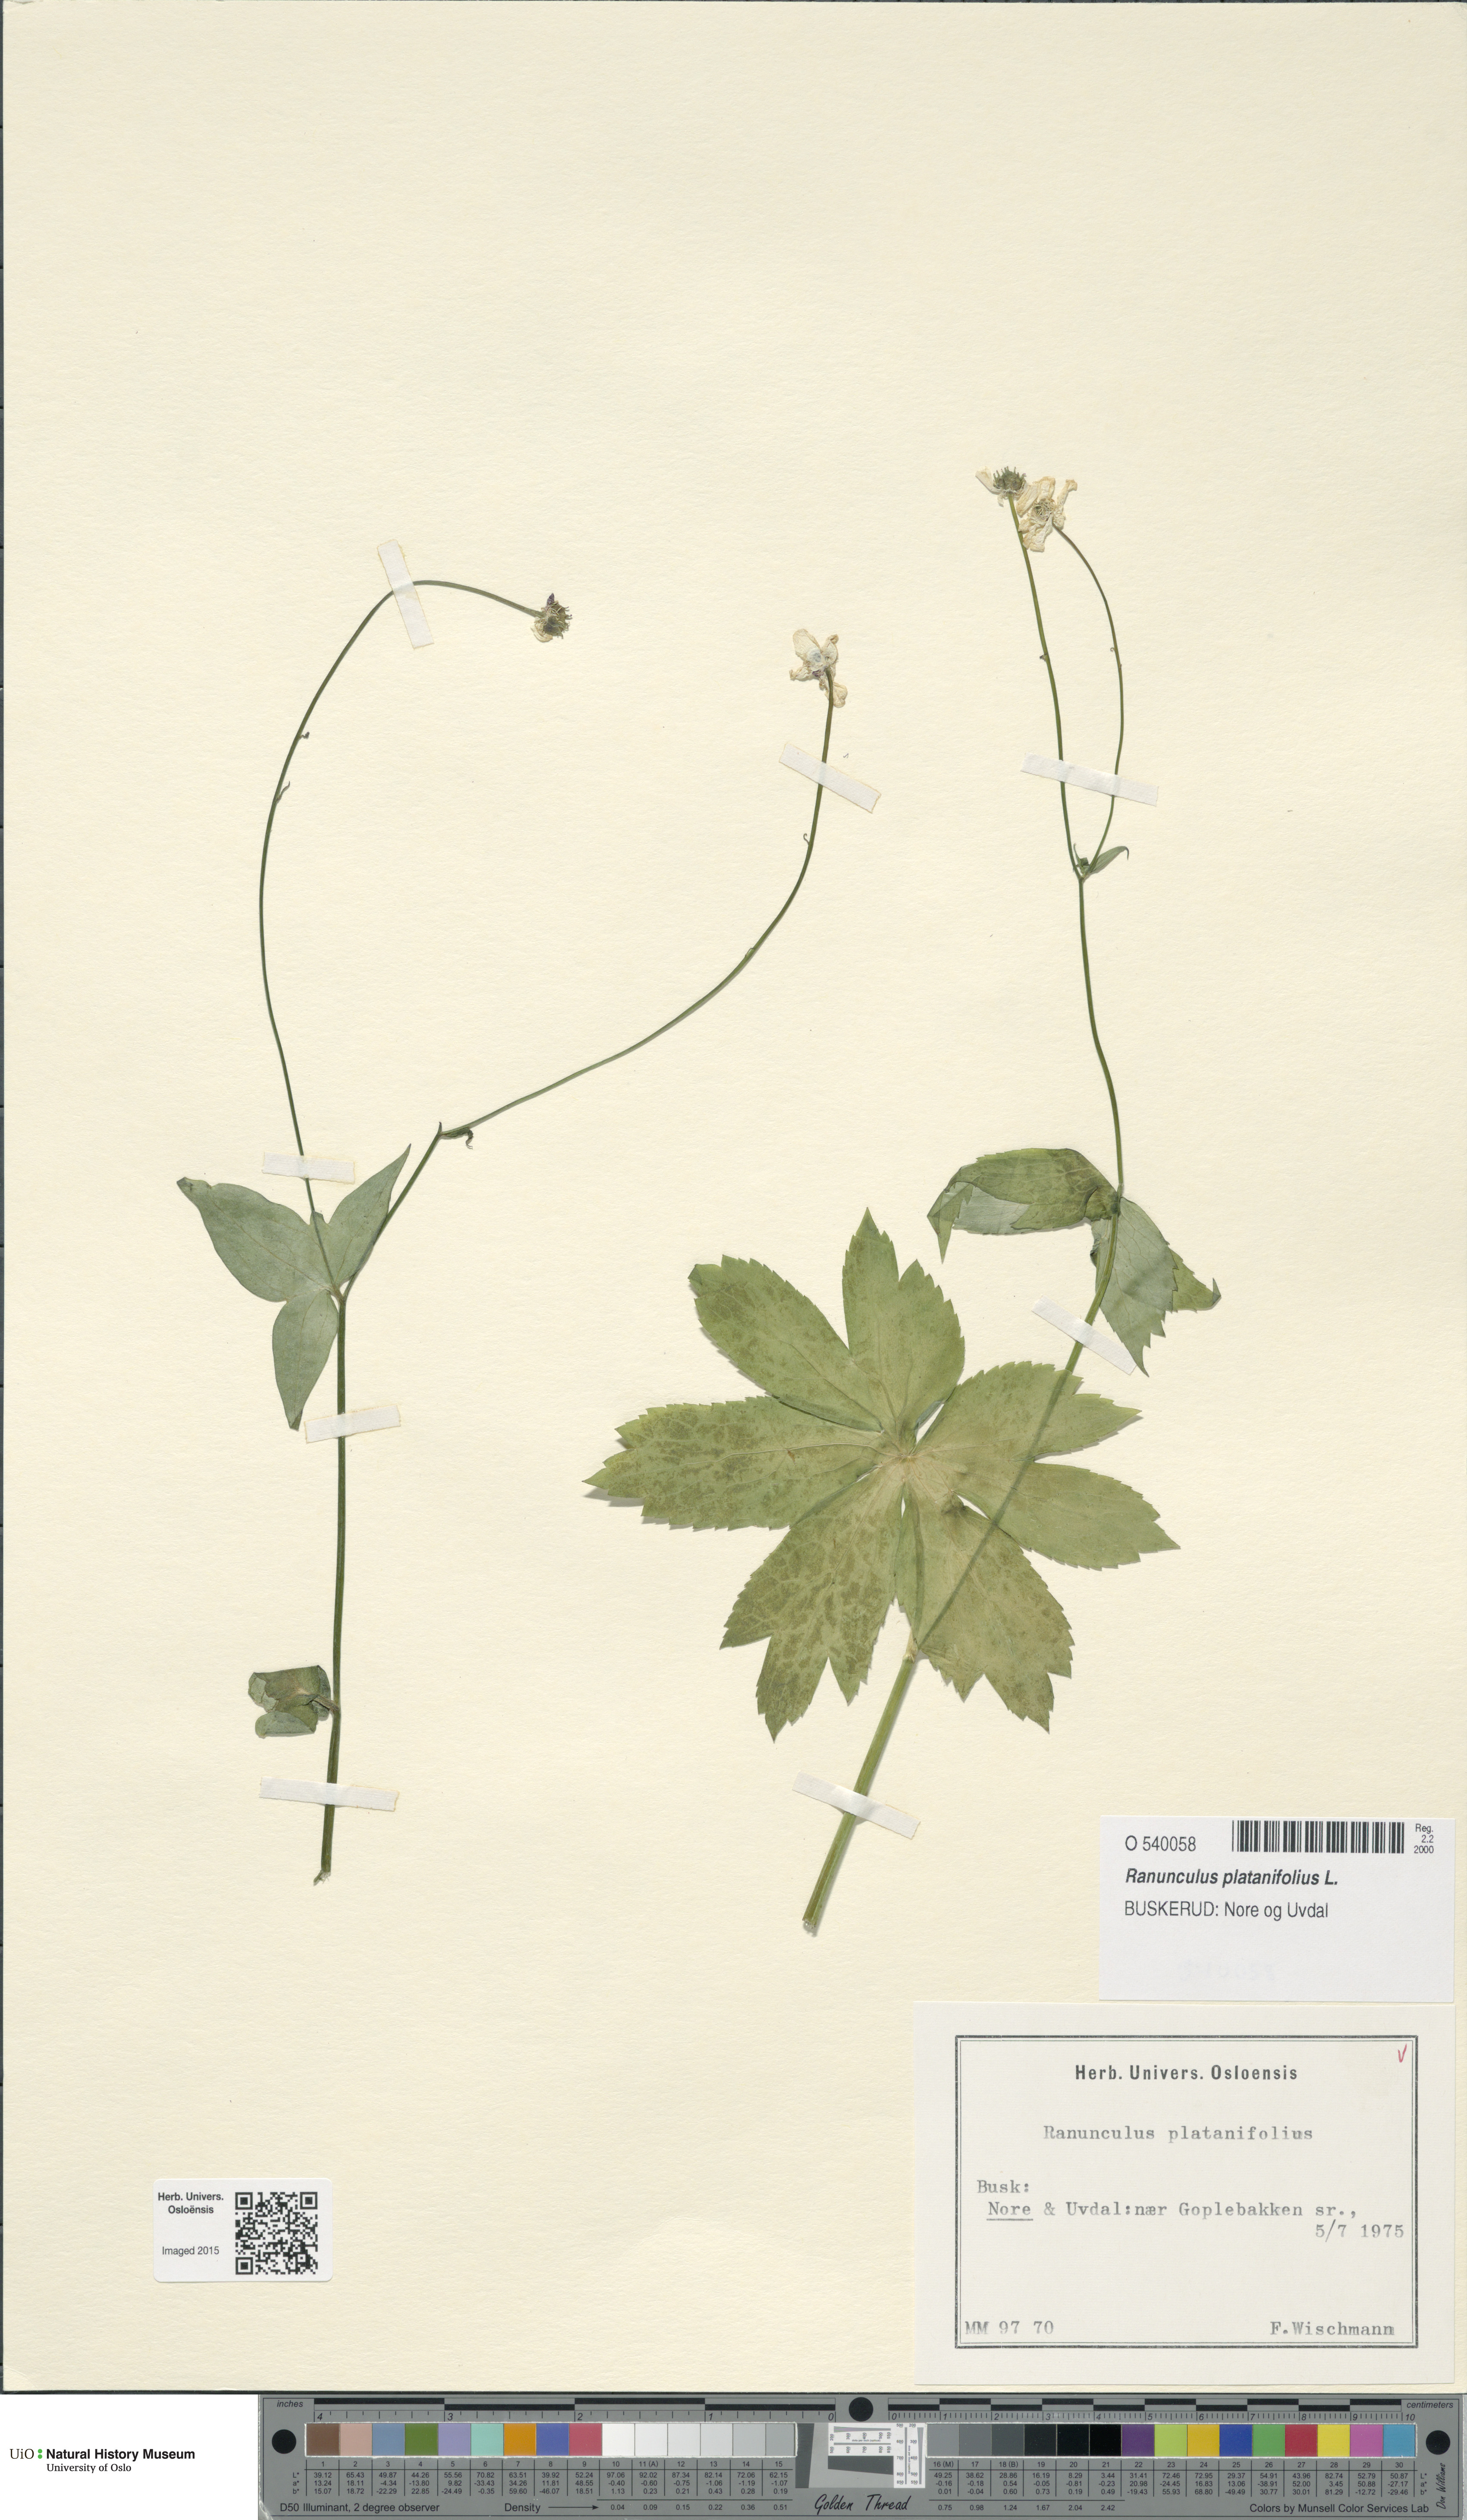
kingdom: Plantae
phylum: Tracheophyta
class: Magnoliopsida
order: Ranunculales
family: Ranunculaceae
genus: Ranunculus
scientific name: Ranunculus platanifolius
